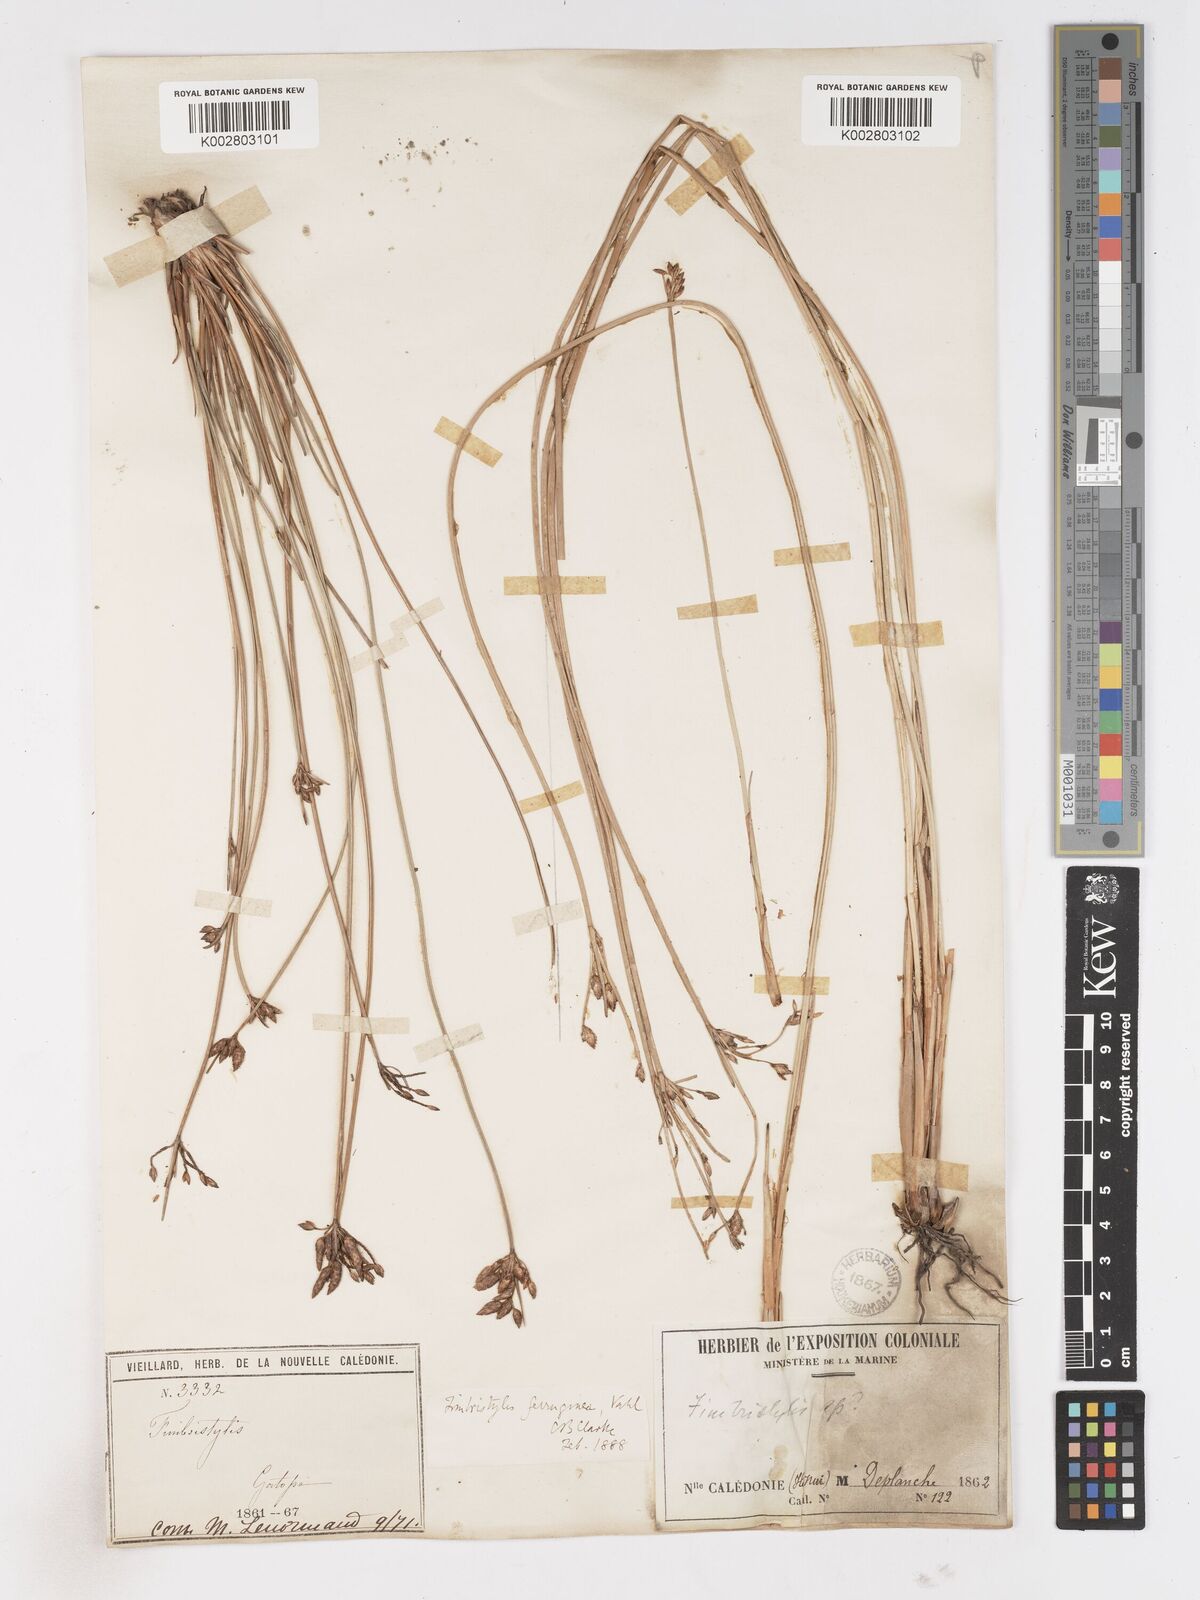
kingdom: Plantae
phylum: Tracheophyta
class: Liliopsida
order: Poales
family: Cyperaceae
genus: Fimbristylis
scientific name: Fimbristylis ferruginea
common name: West indian fimbry
